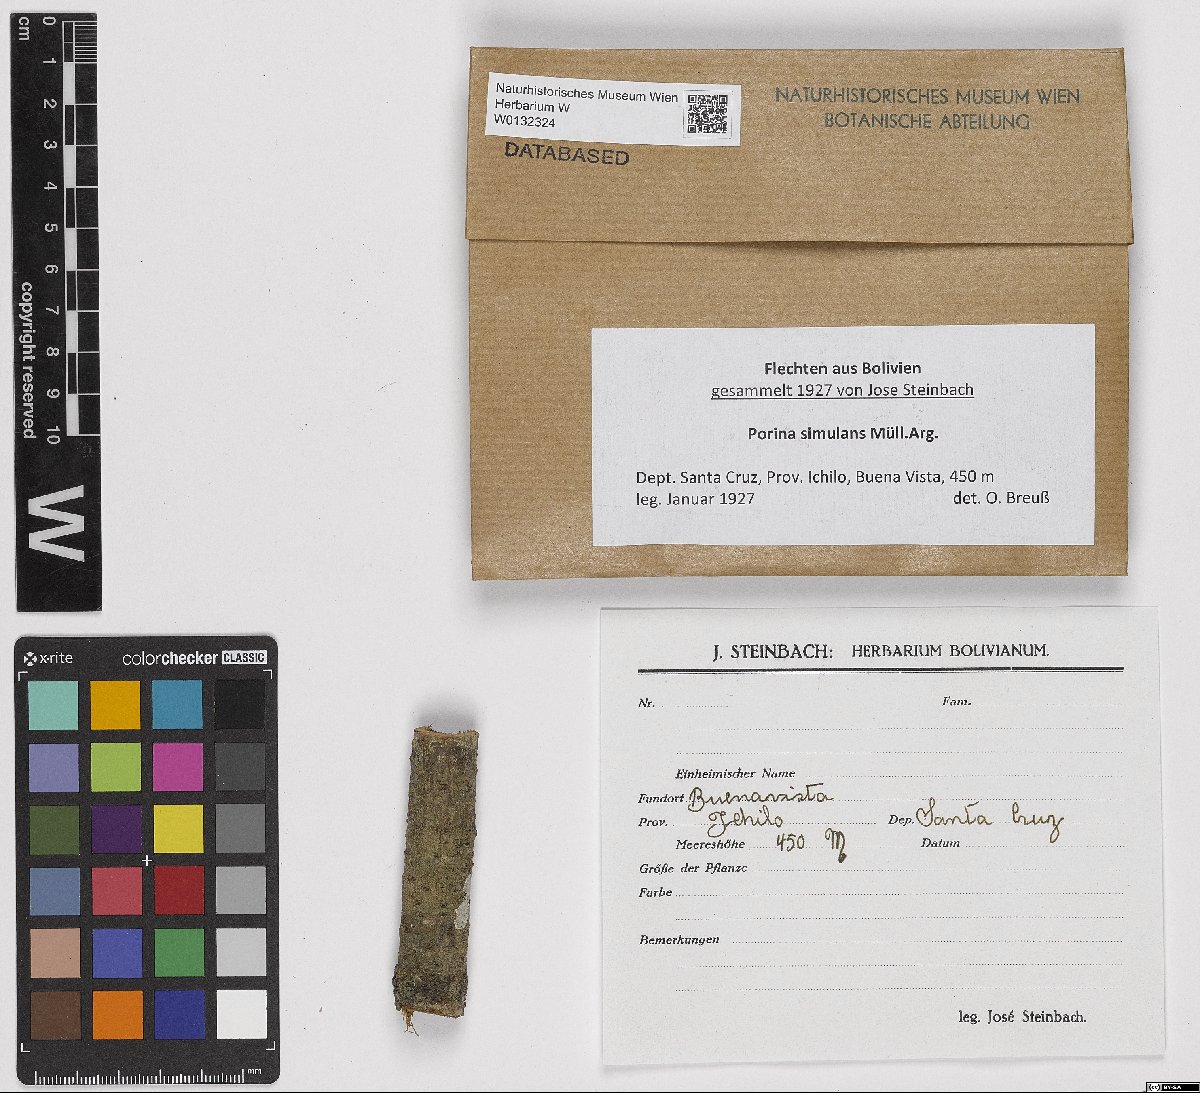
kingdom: Fungi
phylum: Ascomycota
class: Lecanoromycetes
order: Pertusariales
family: Pertusariaceae
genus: Porina
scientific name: Porina simulans
